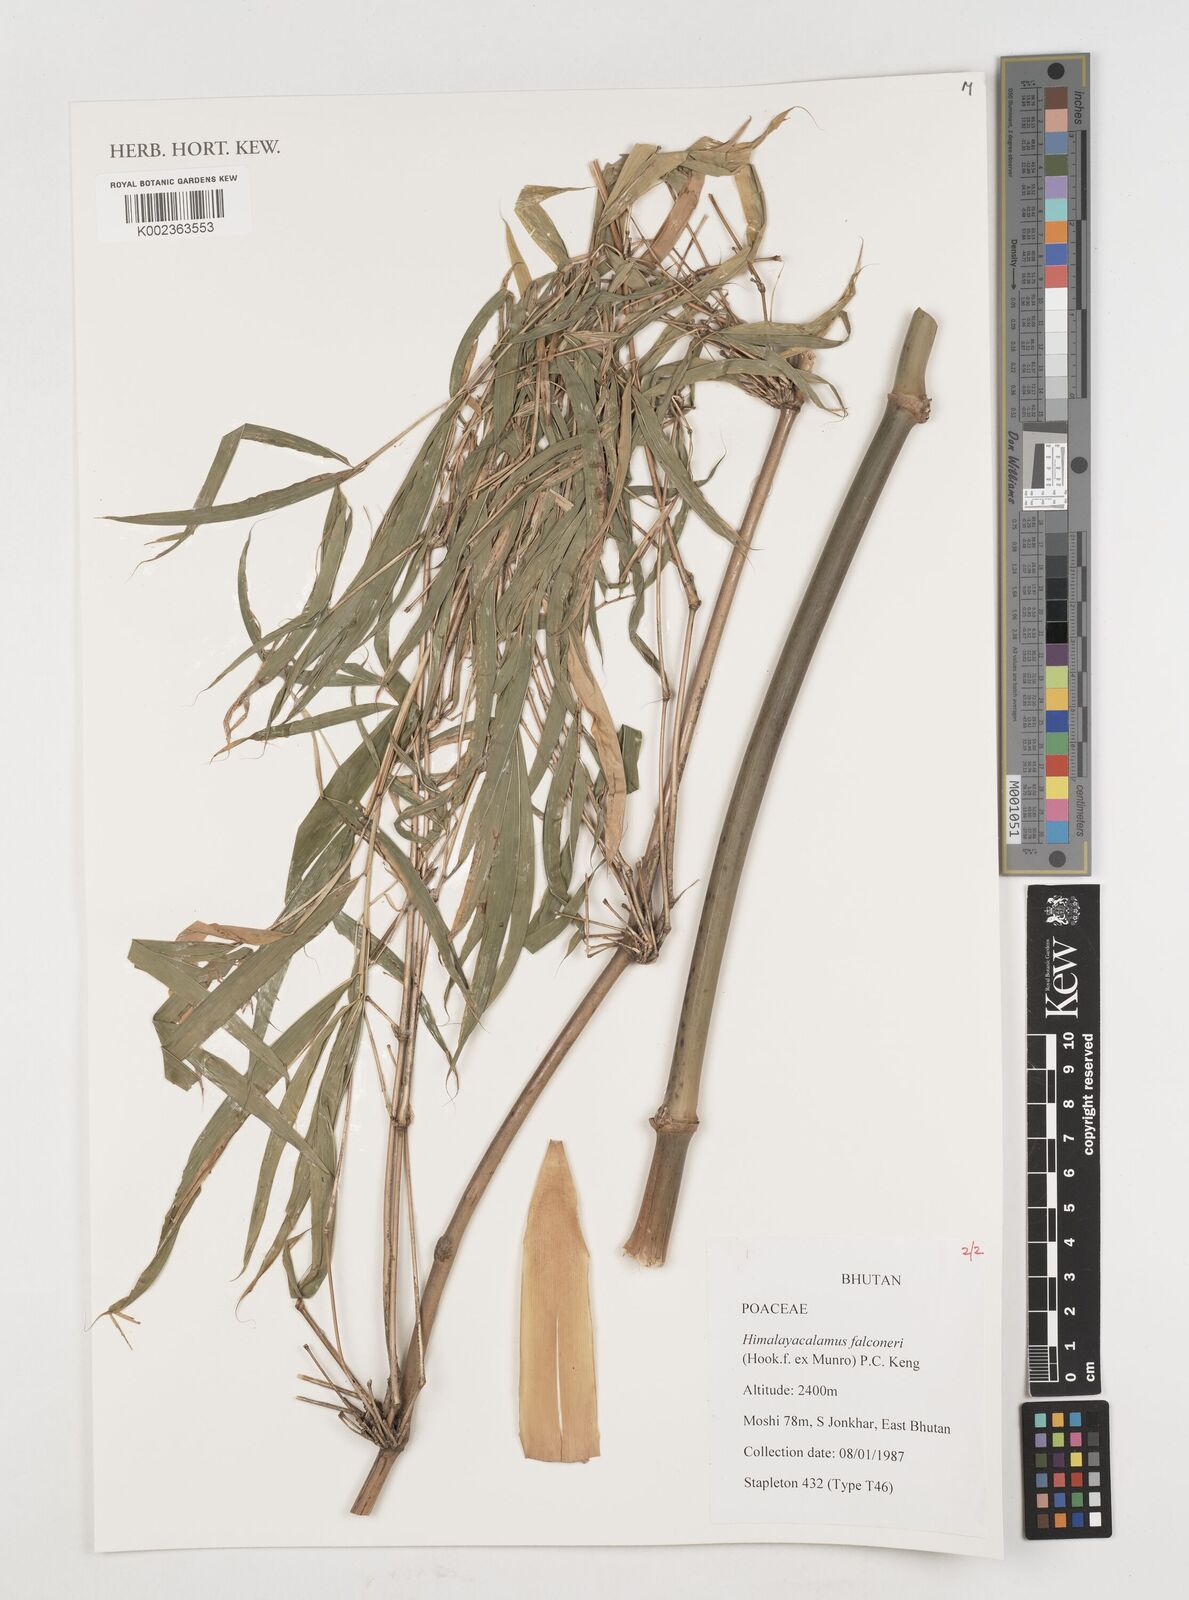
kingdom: Plantae
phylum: Tracheophyta
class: Liliopsida
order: Poales
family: Poaceae
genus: Himalayacalamus
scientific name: Himalayacalamus falconeri
